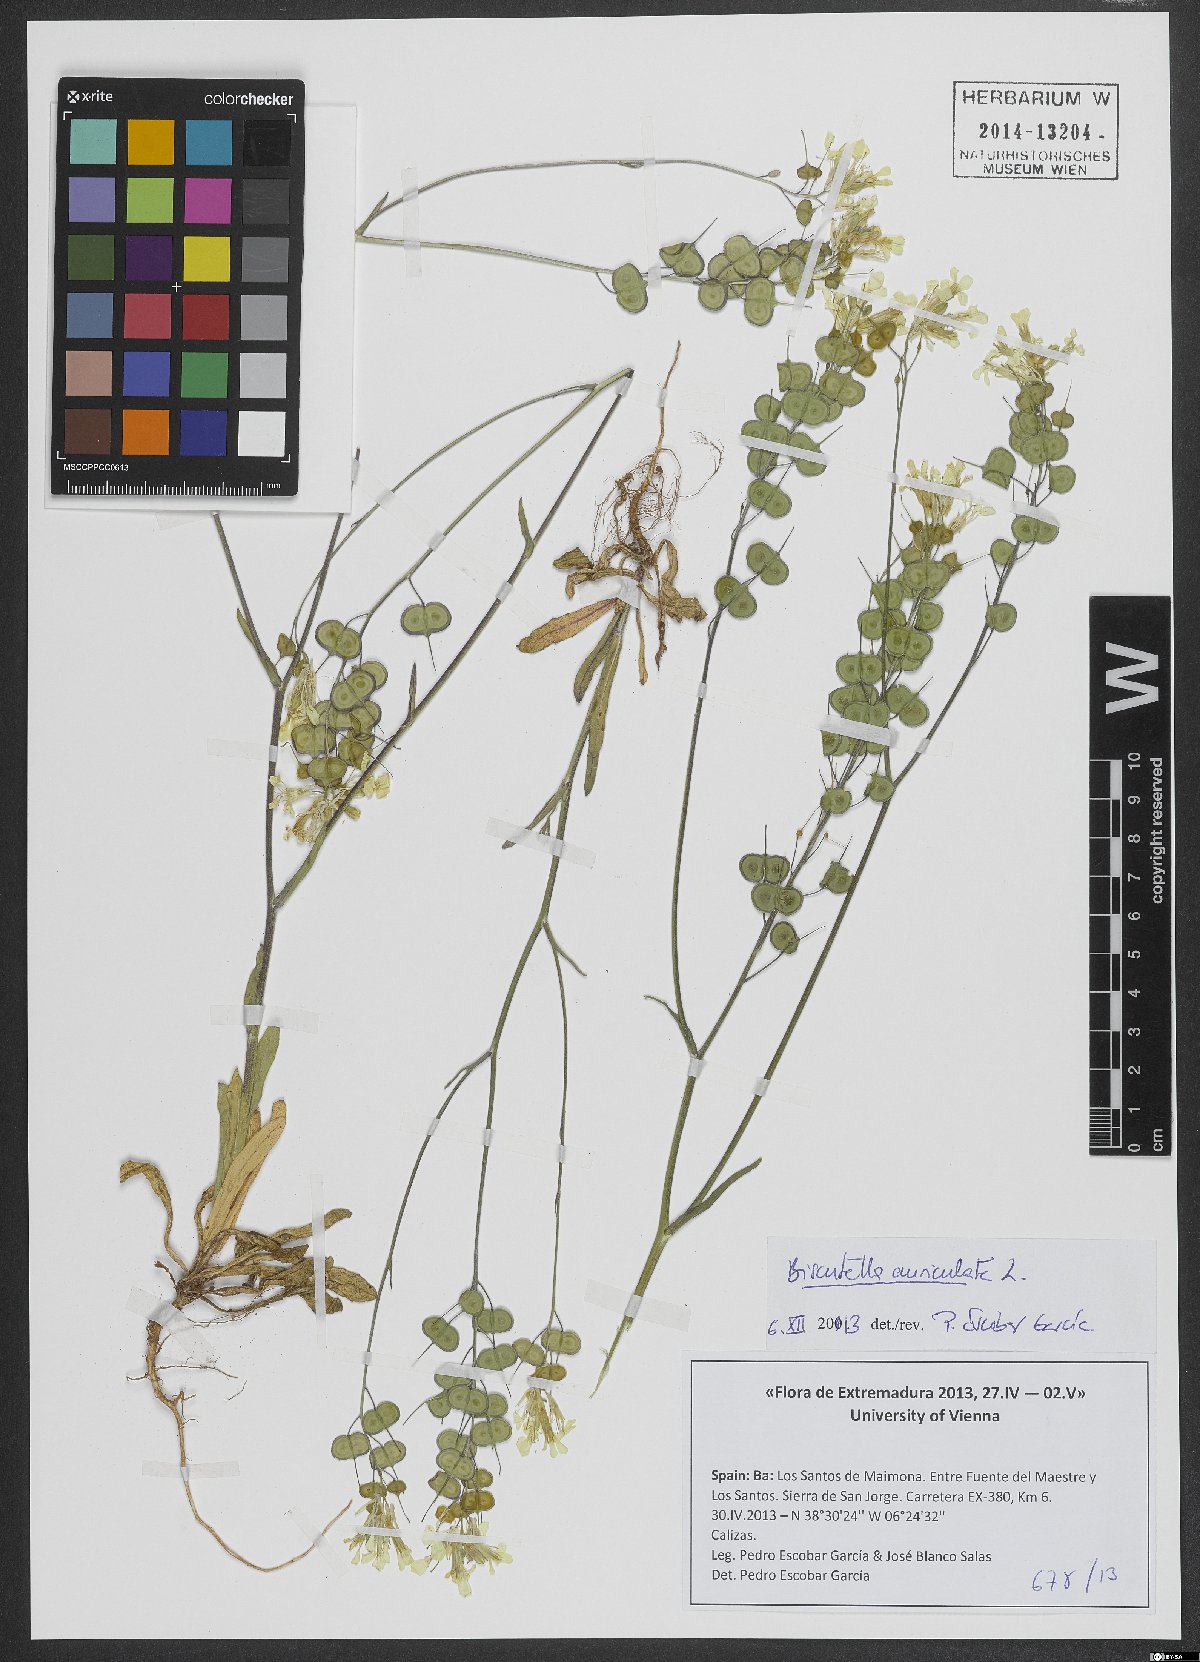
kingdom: Plantae
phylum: Tracheophyta
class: Magnoliopsida
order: Brassicales
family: Brassicaceae
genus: Biscutella
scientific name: Biscutella auriculata
